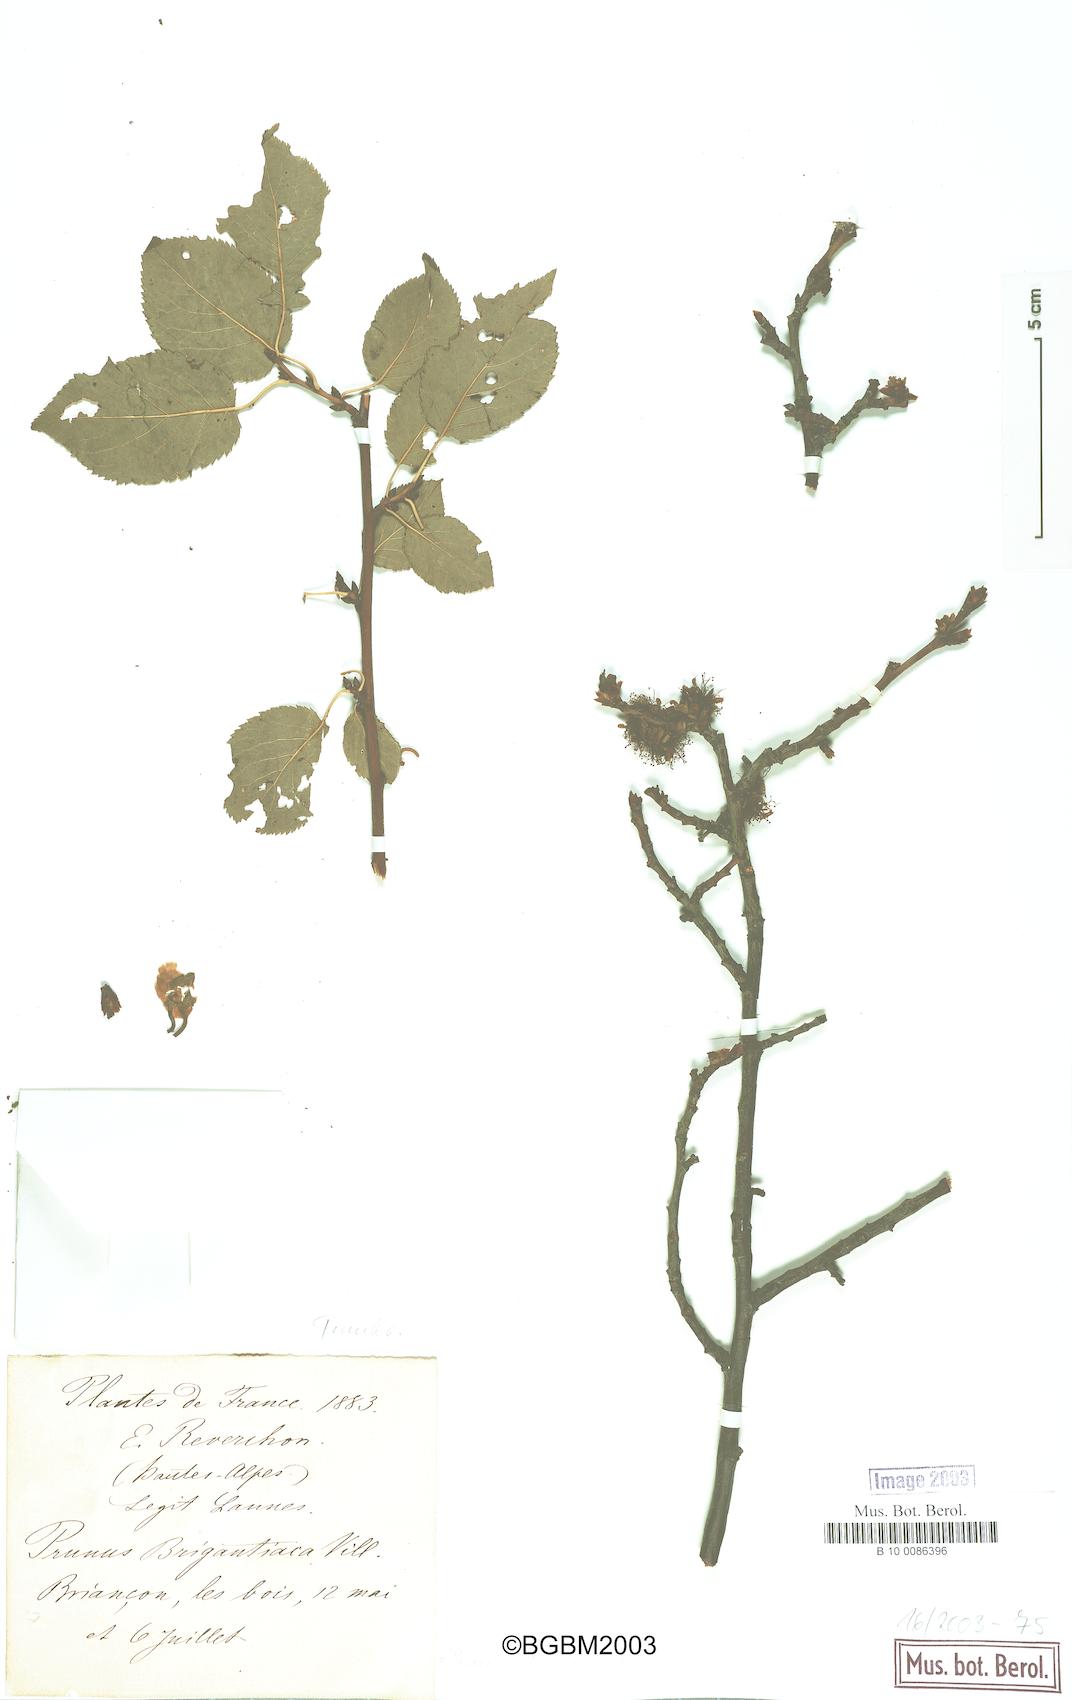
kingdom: Plantae
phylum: Tracheophyta
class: Magnoliopsida
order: Rosales
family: Rosaceae
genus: Prunus
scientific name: Prunus brigantina
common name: Briançon apricot
